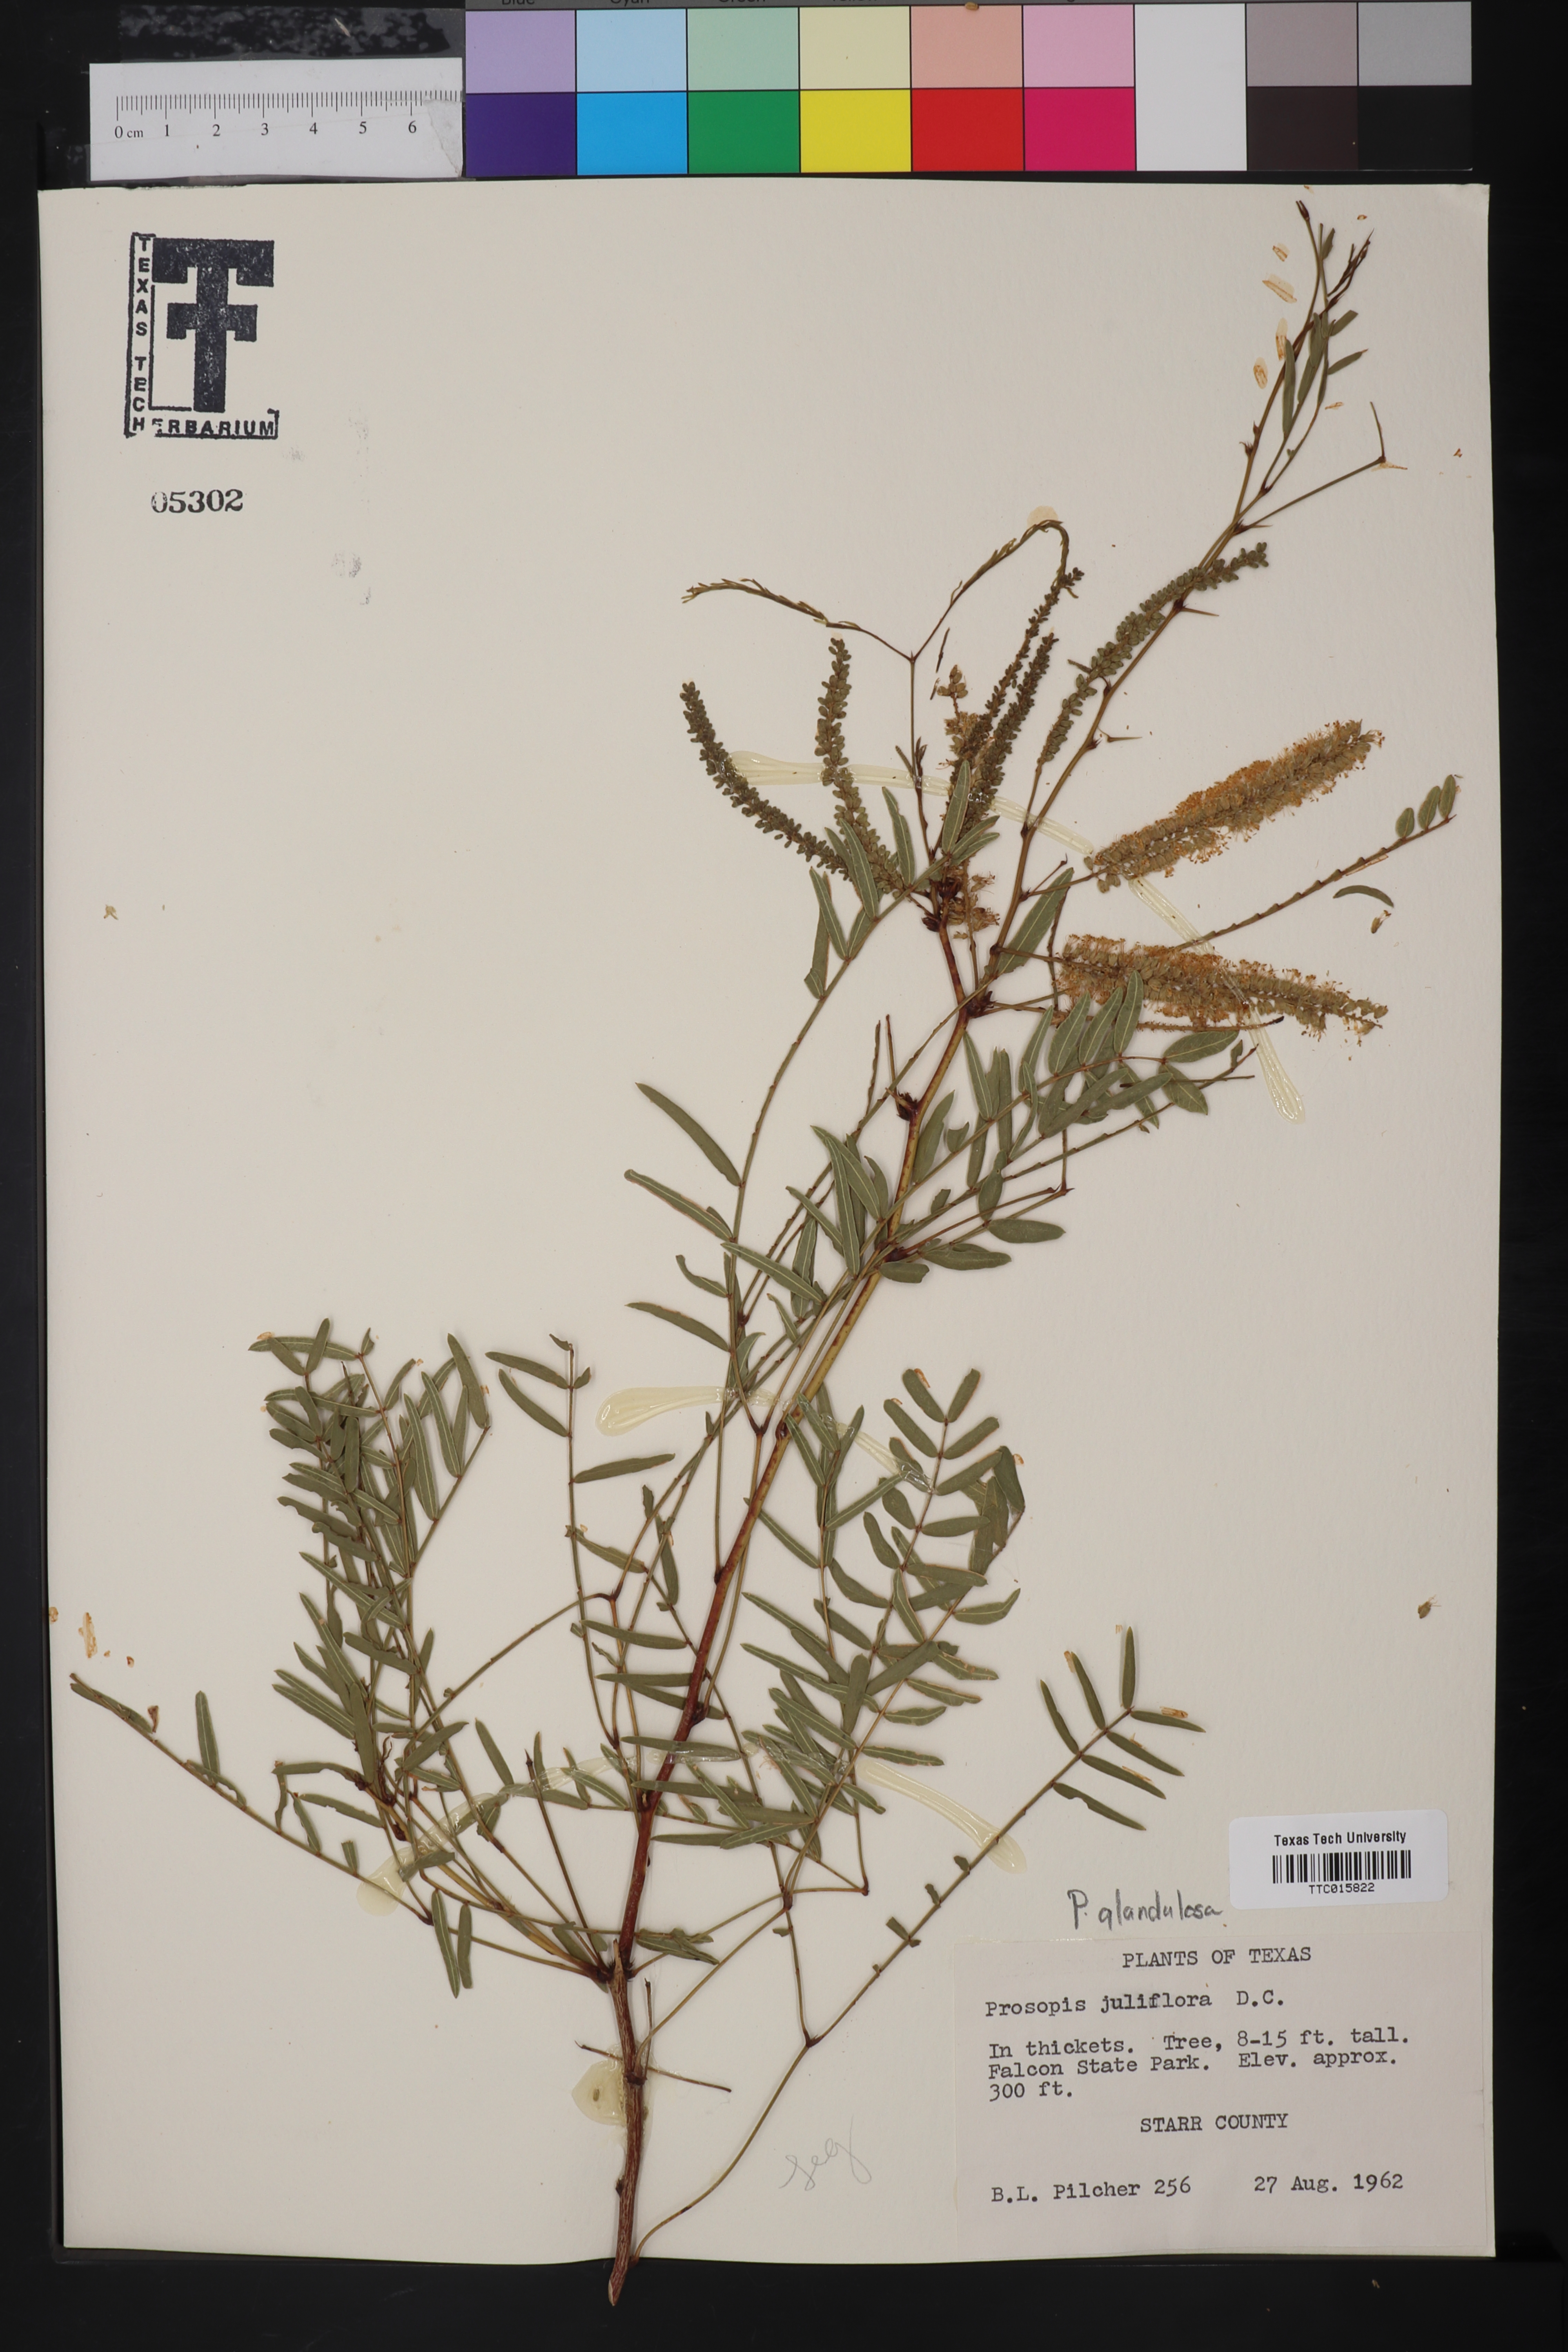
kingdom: Plantae
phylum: Tracheophyta
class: Magnoliopsida
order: Fabales
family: Fabaceae
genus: Prosopis
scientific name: Prosopis juliflora
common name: Mesquite
